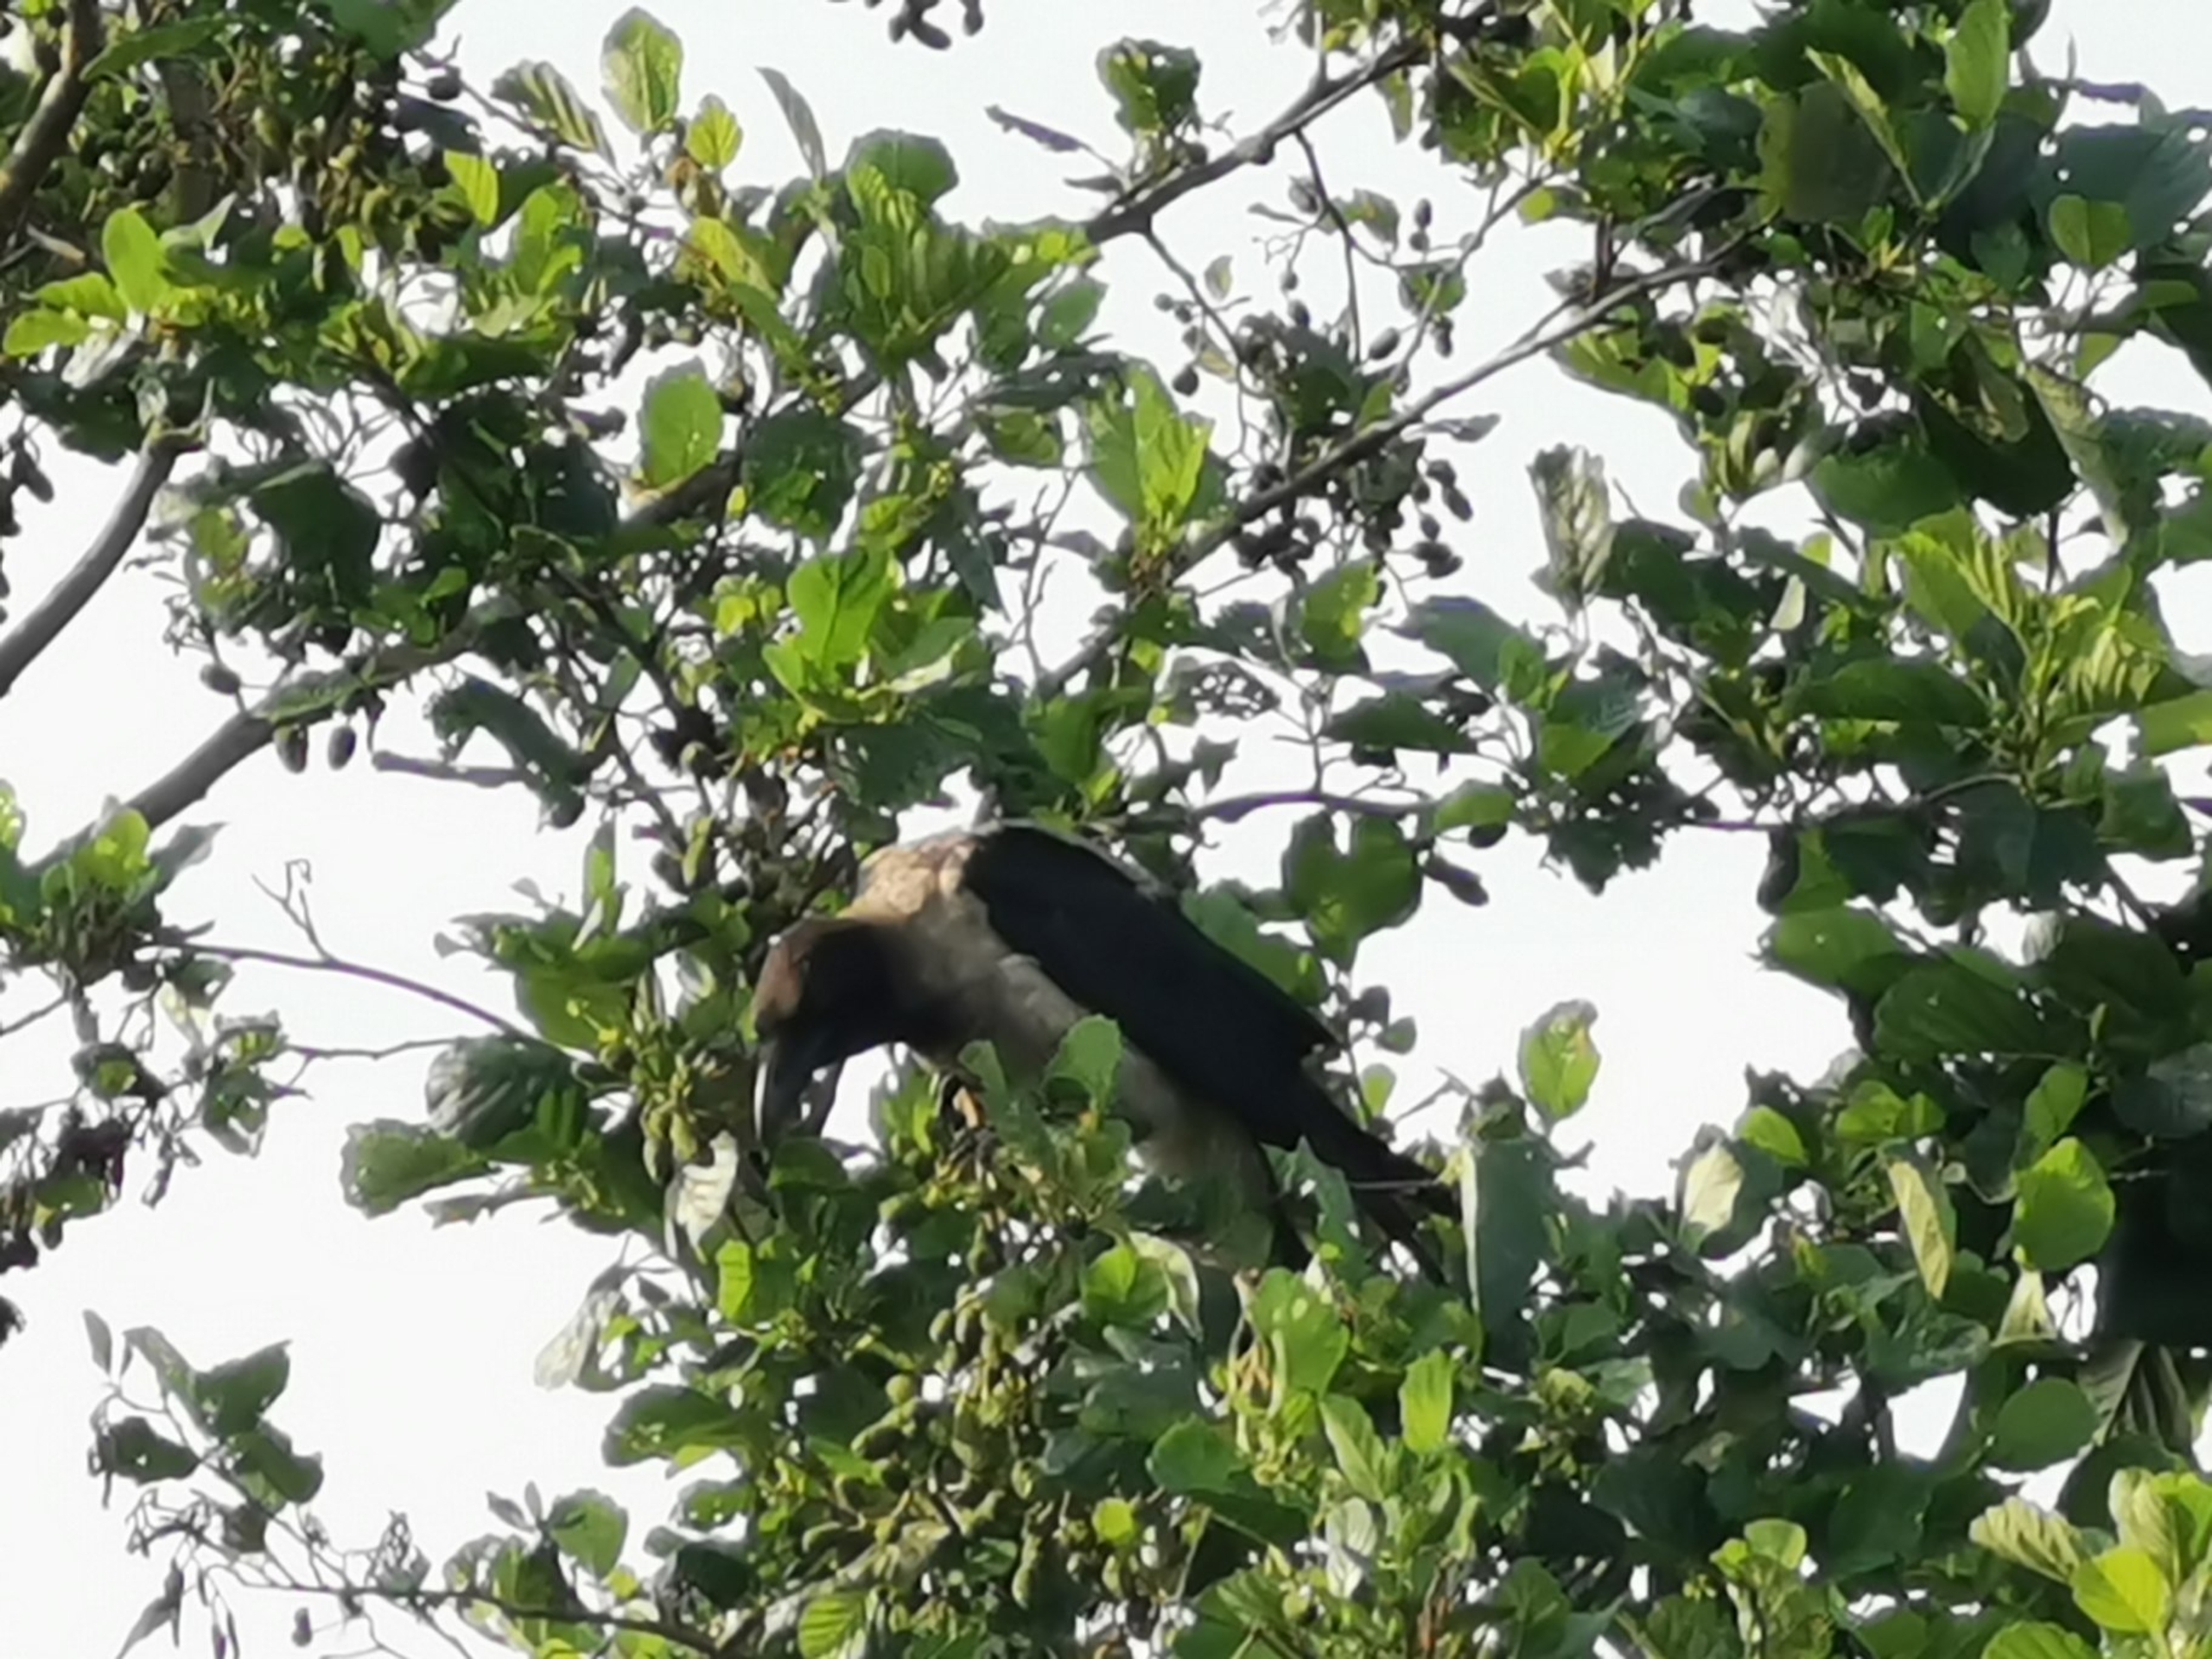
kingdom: Animalia
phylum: Chordata
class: Aves
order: Passeriformes
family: Corvidae
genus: Corvus
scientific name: Corvus cornix
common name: Gråkrage
